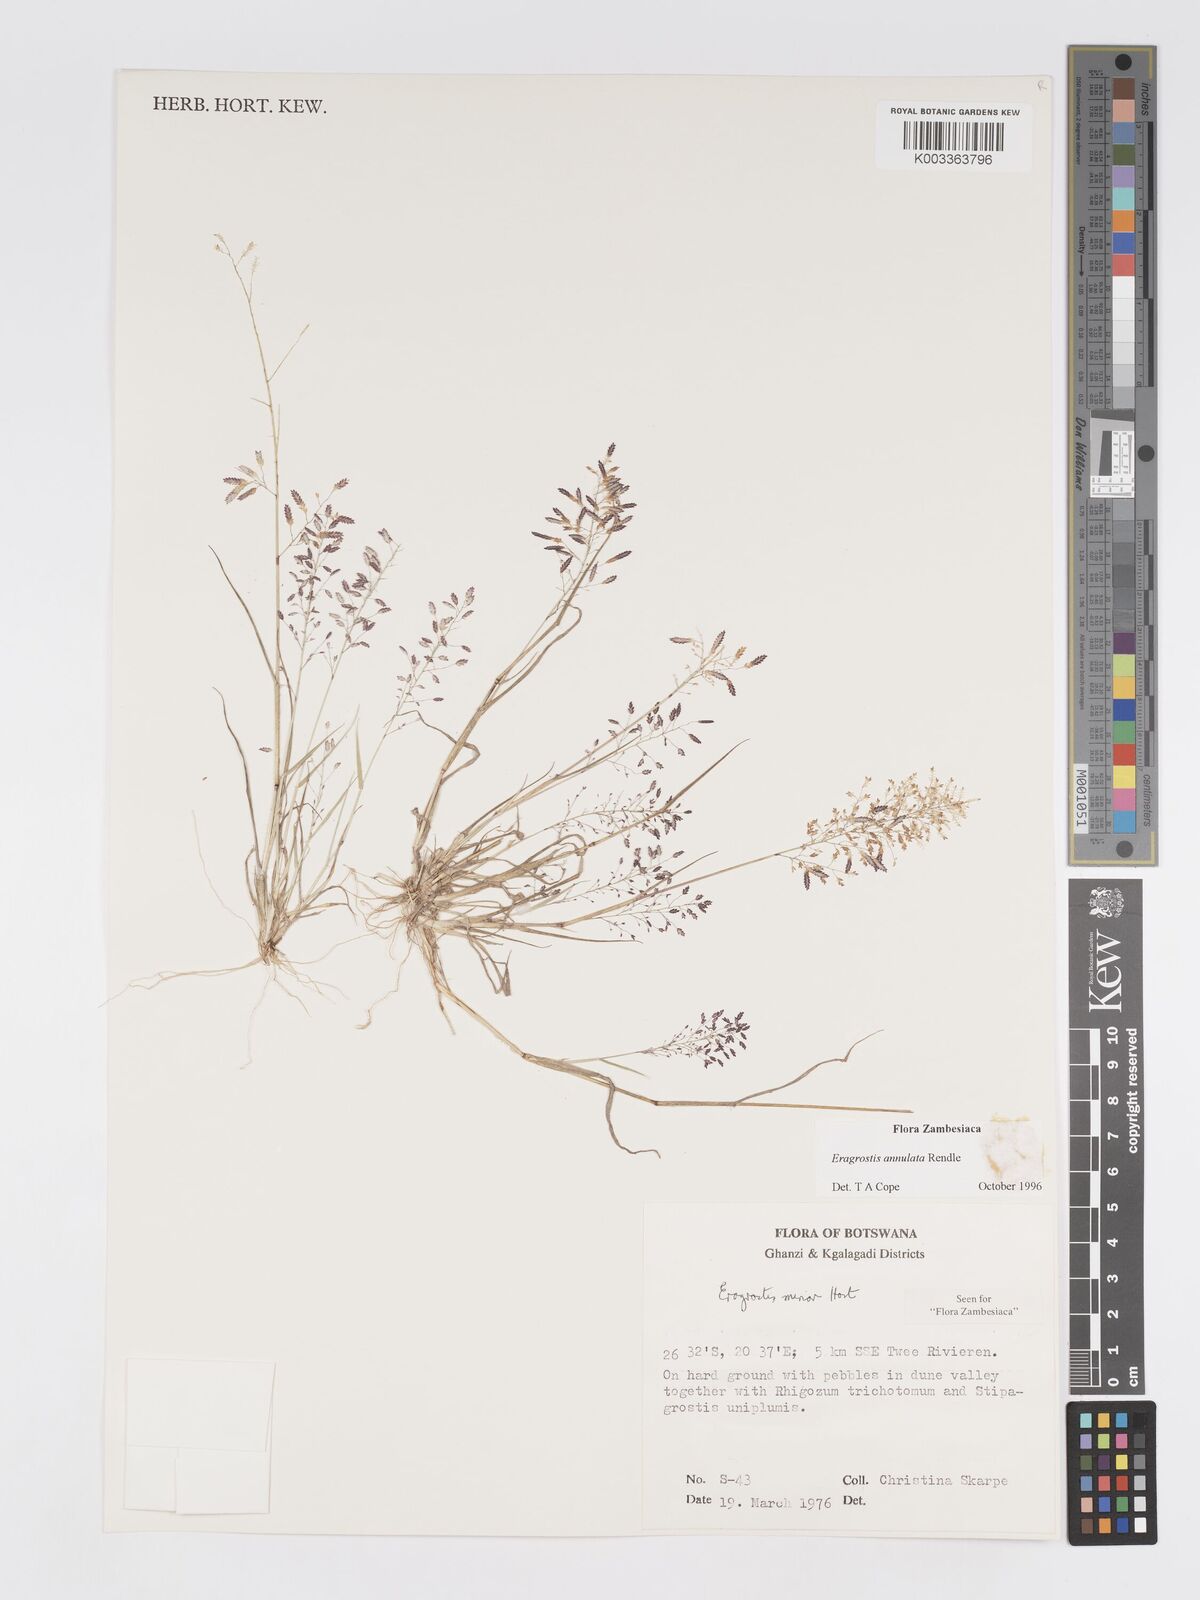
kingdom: Plantae
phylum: Tracheophyta
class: Liliopsida
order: Poales
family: Poaceae
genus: Eragrostis
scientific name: Eragrostis annulata
